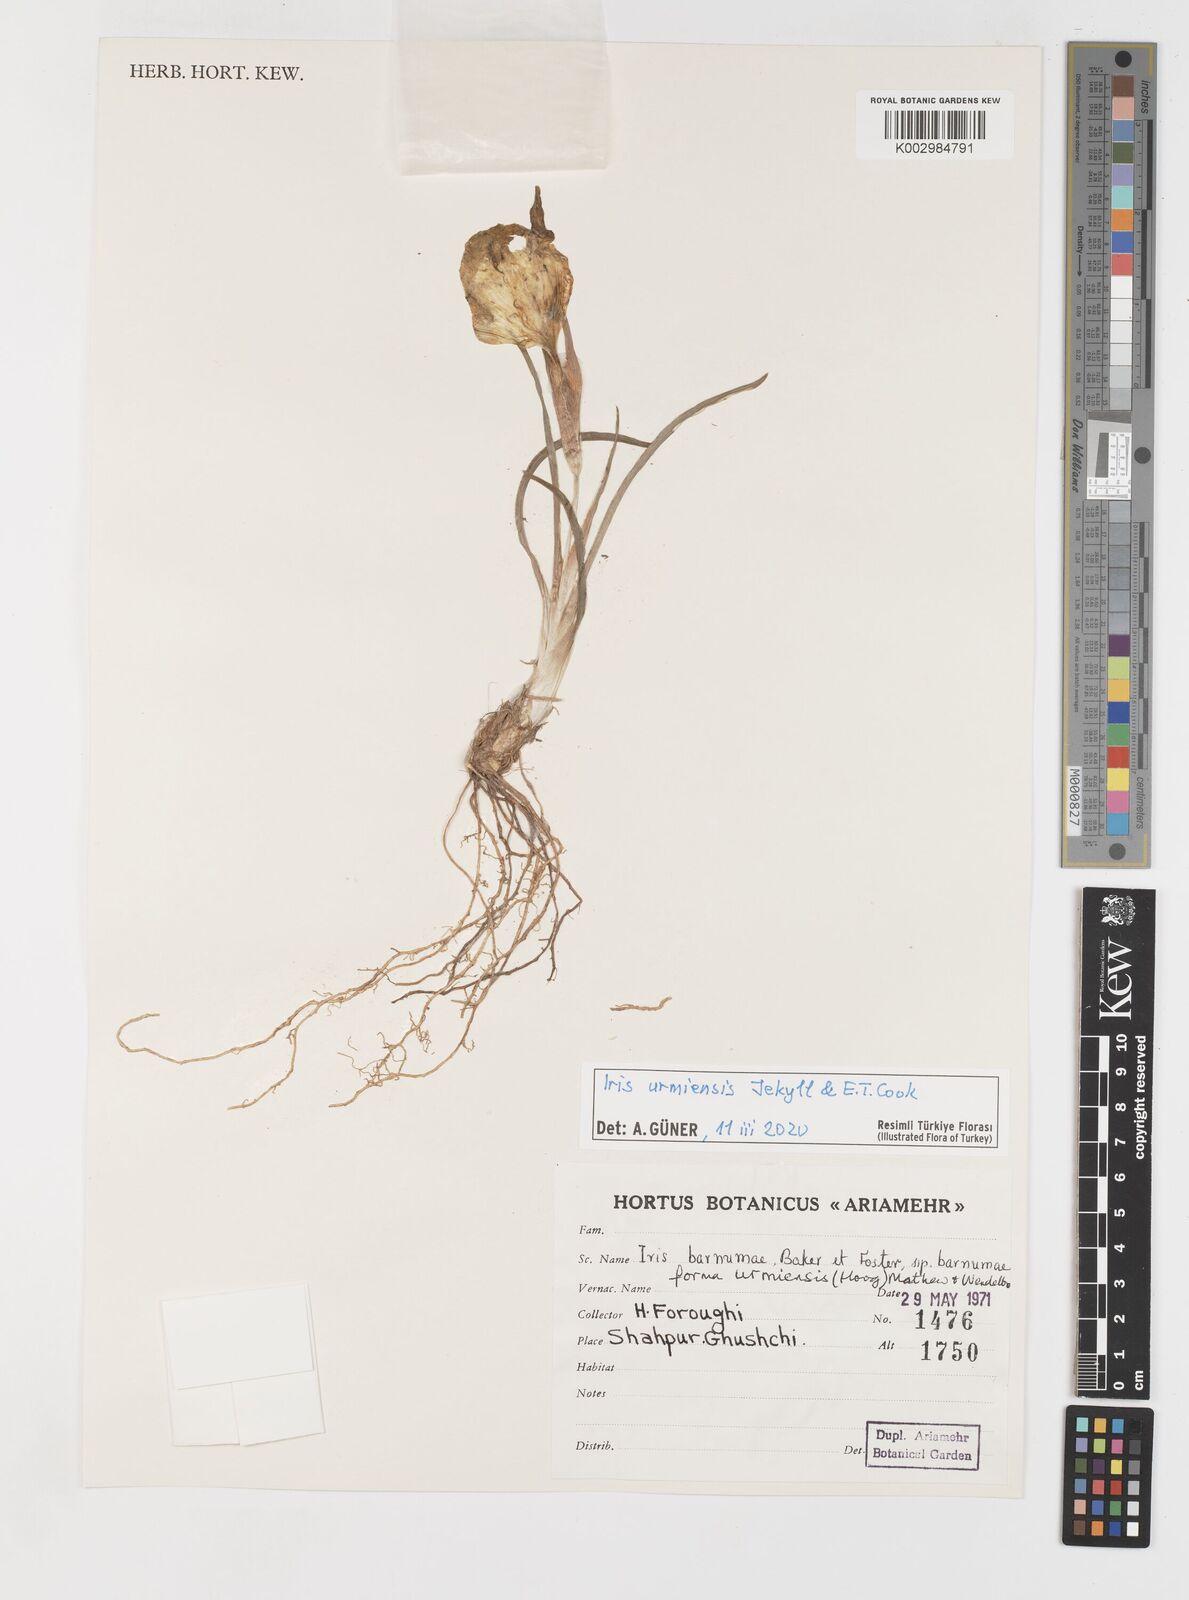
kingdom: Plantae
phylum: Tracheophyta
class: Liliopsida
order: Asparagales
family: Iridaceae
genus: Iris
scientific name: Iris polakii
